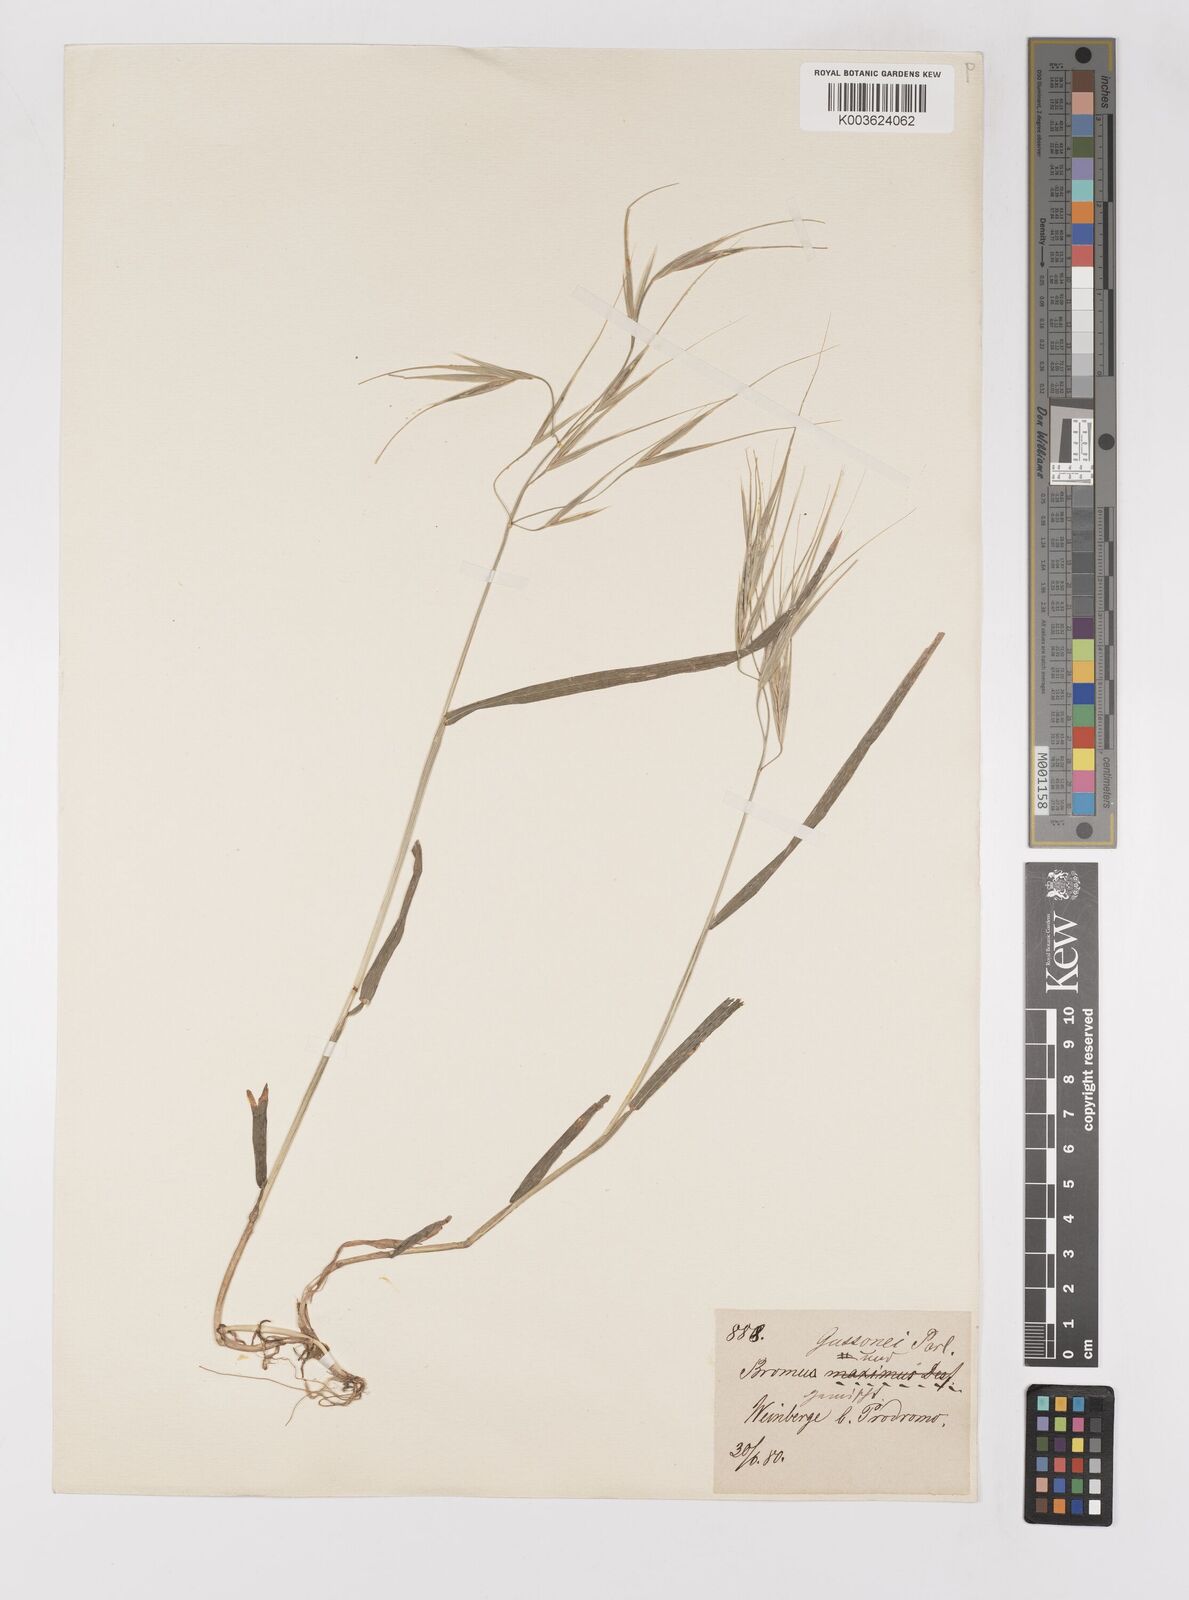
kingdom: Plantae
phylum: Tracheophyta
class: Liliopsida
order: Poales
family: Poaceae
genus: Bromus
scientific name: Bromus diandrus
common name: Ripgut brome
